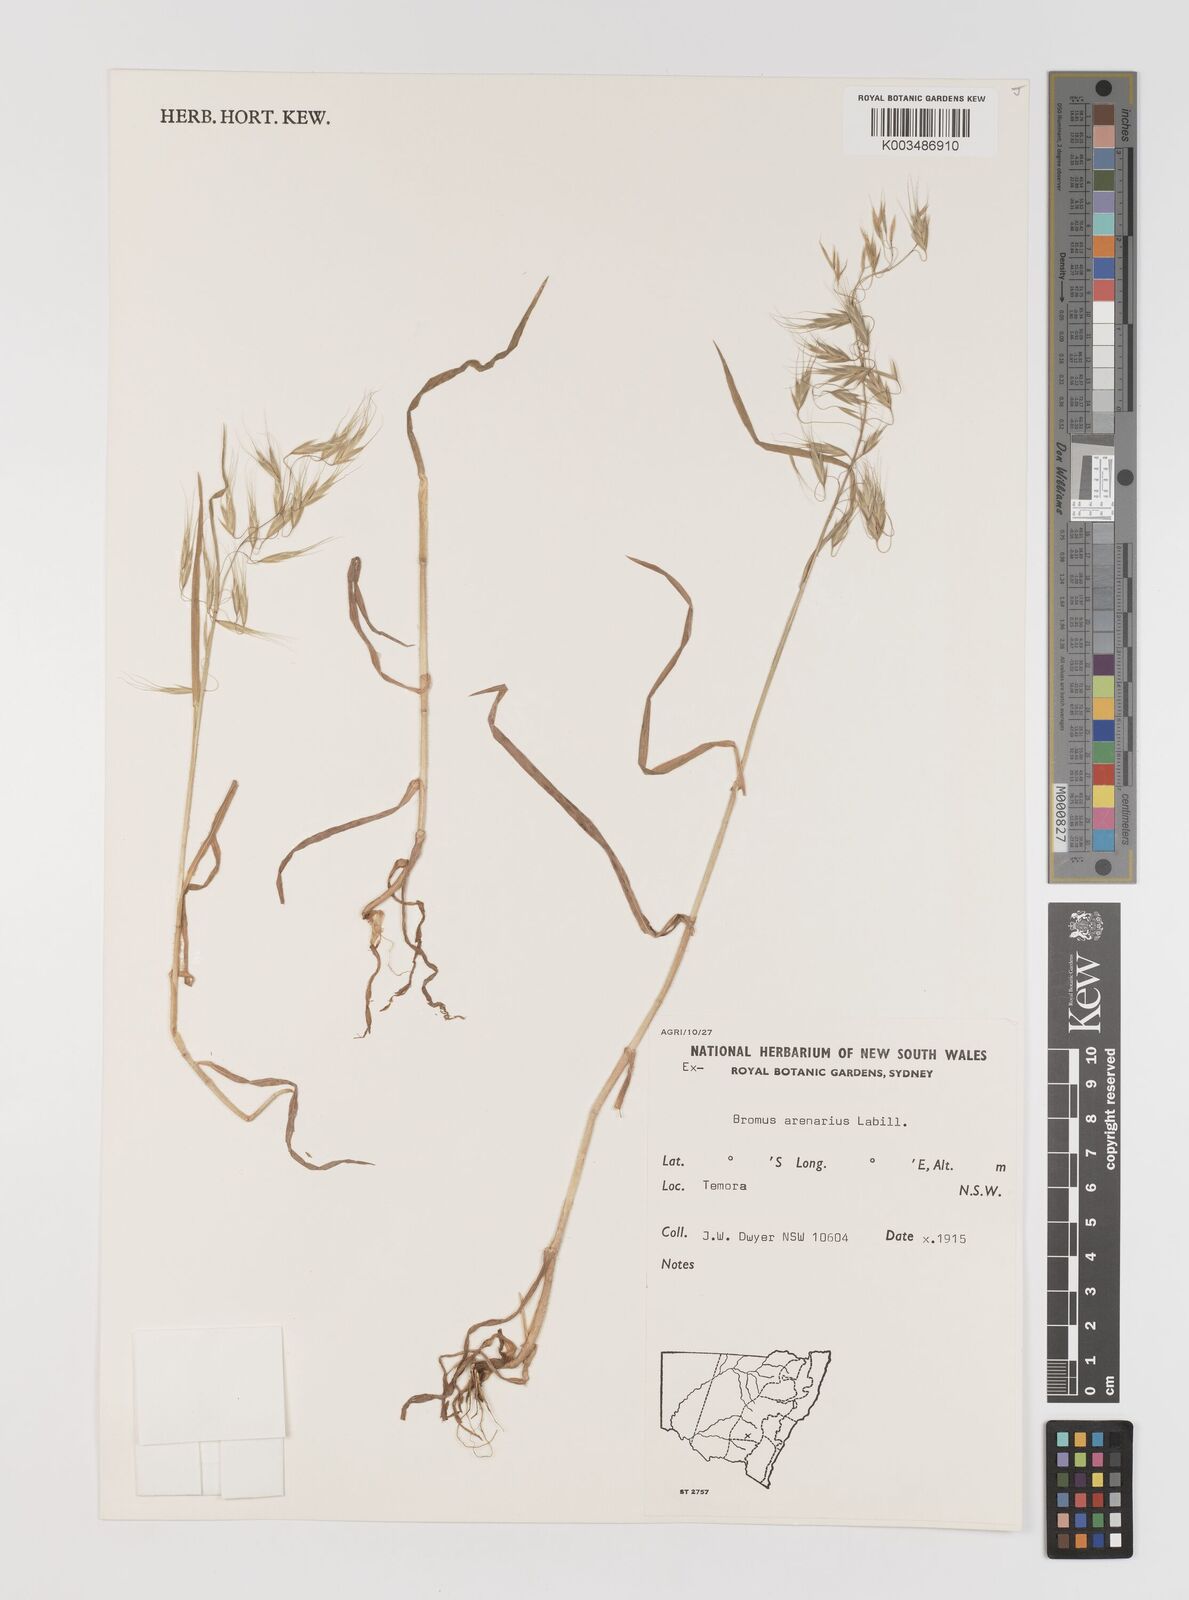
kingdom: Plantae
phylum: Tracheophyta
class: Liliopsida
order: Poales
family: Poaceae
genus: Bromus
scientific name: Bromus arenarius
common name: Australian brome
